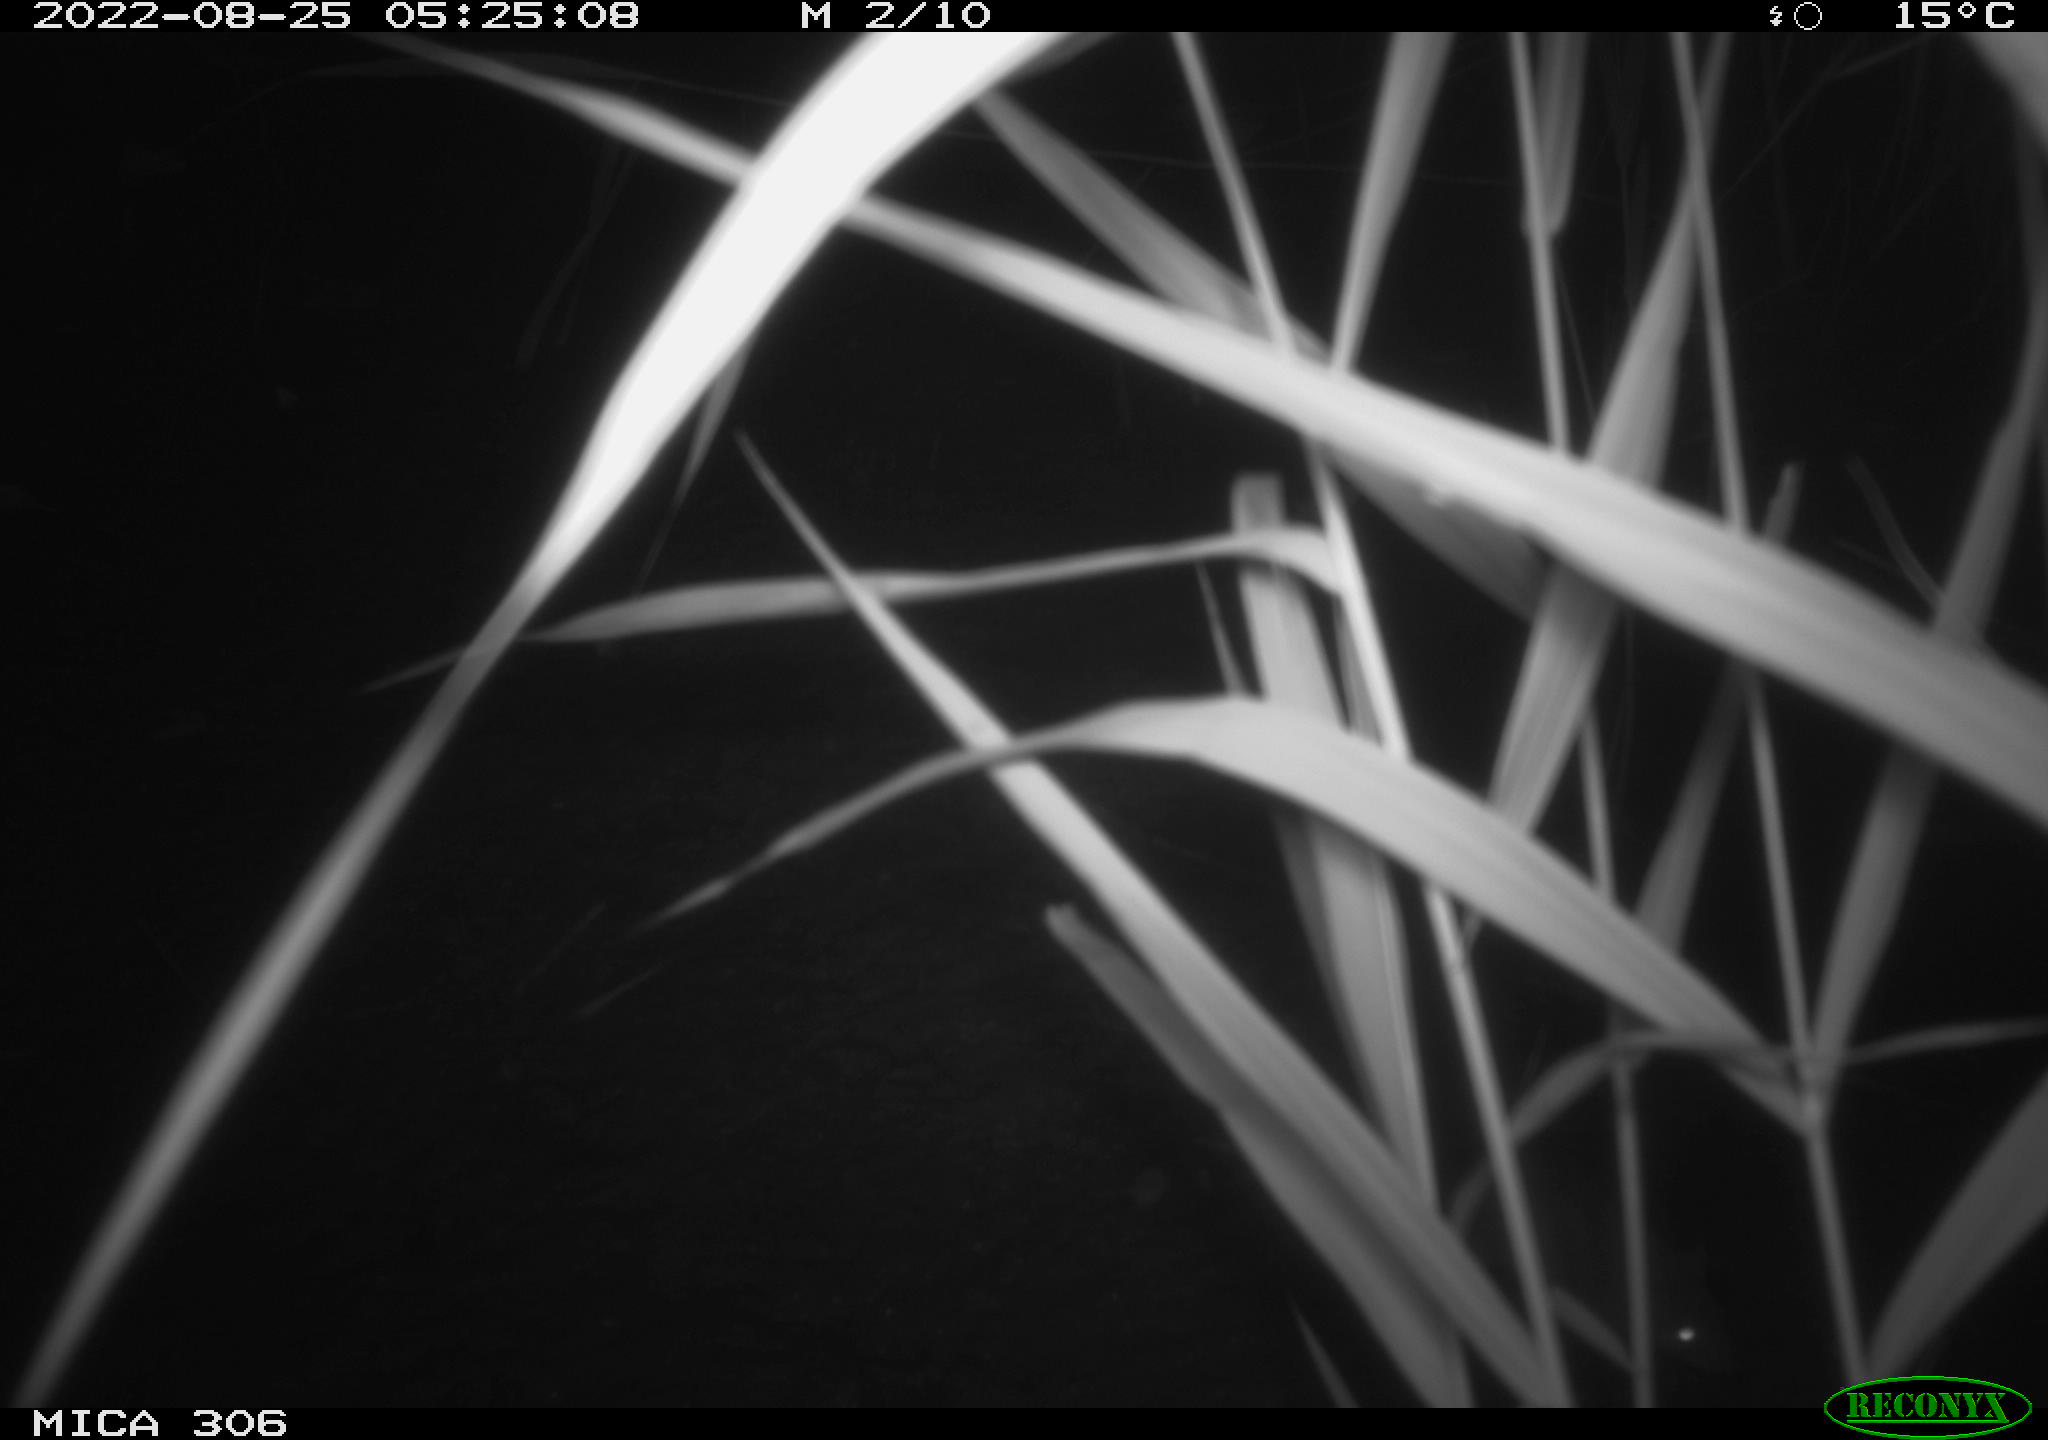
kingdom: Animalia
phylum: Chordata
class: Mammalia
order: Rodentia
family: Muridae
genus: Rattus
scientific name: Rattus norvegicus
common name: Brown rat
